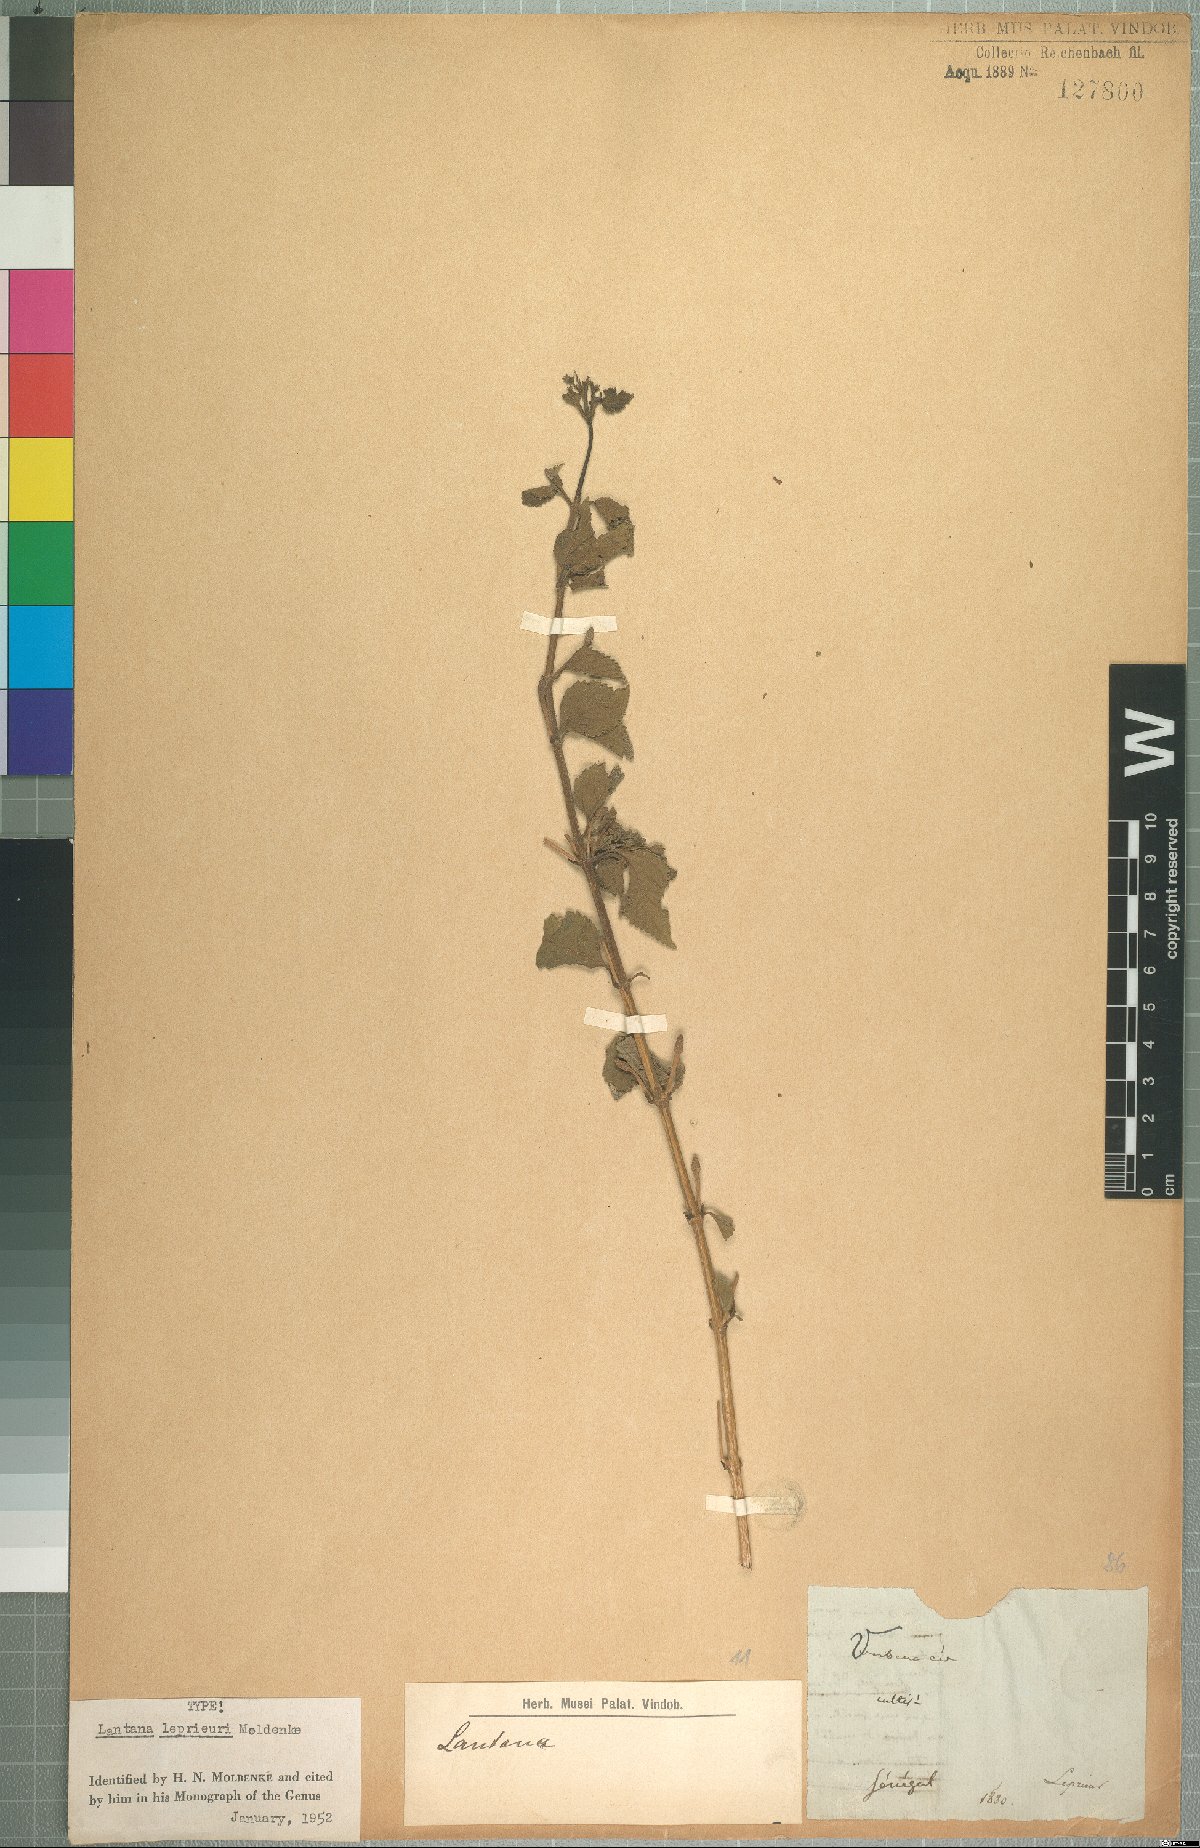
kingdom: Plantae
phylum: Tracheophyta
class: Magnoliopsida
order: Lamiales
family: Verbenaceae
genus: Lantana
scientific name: Lantana leprieuri
